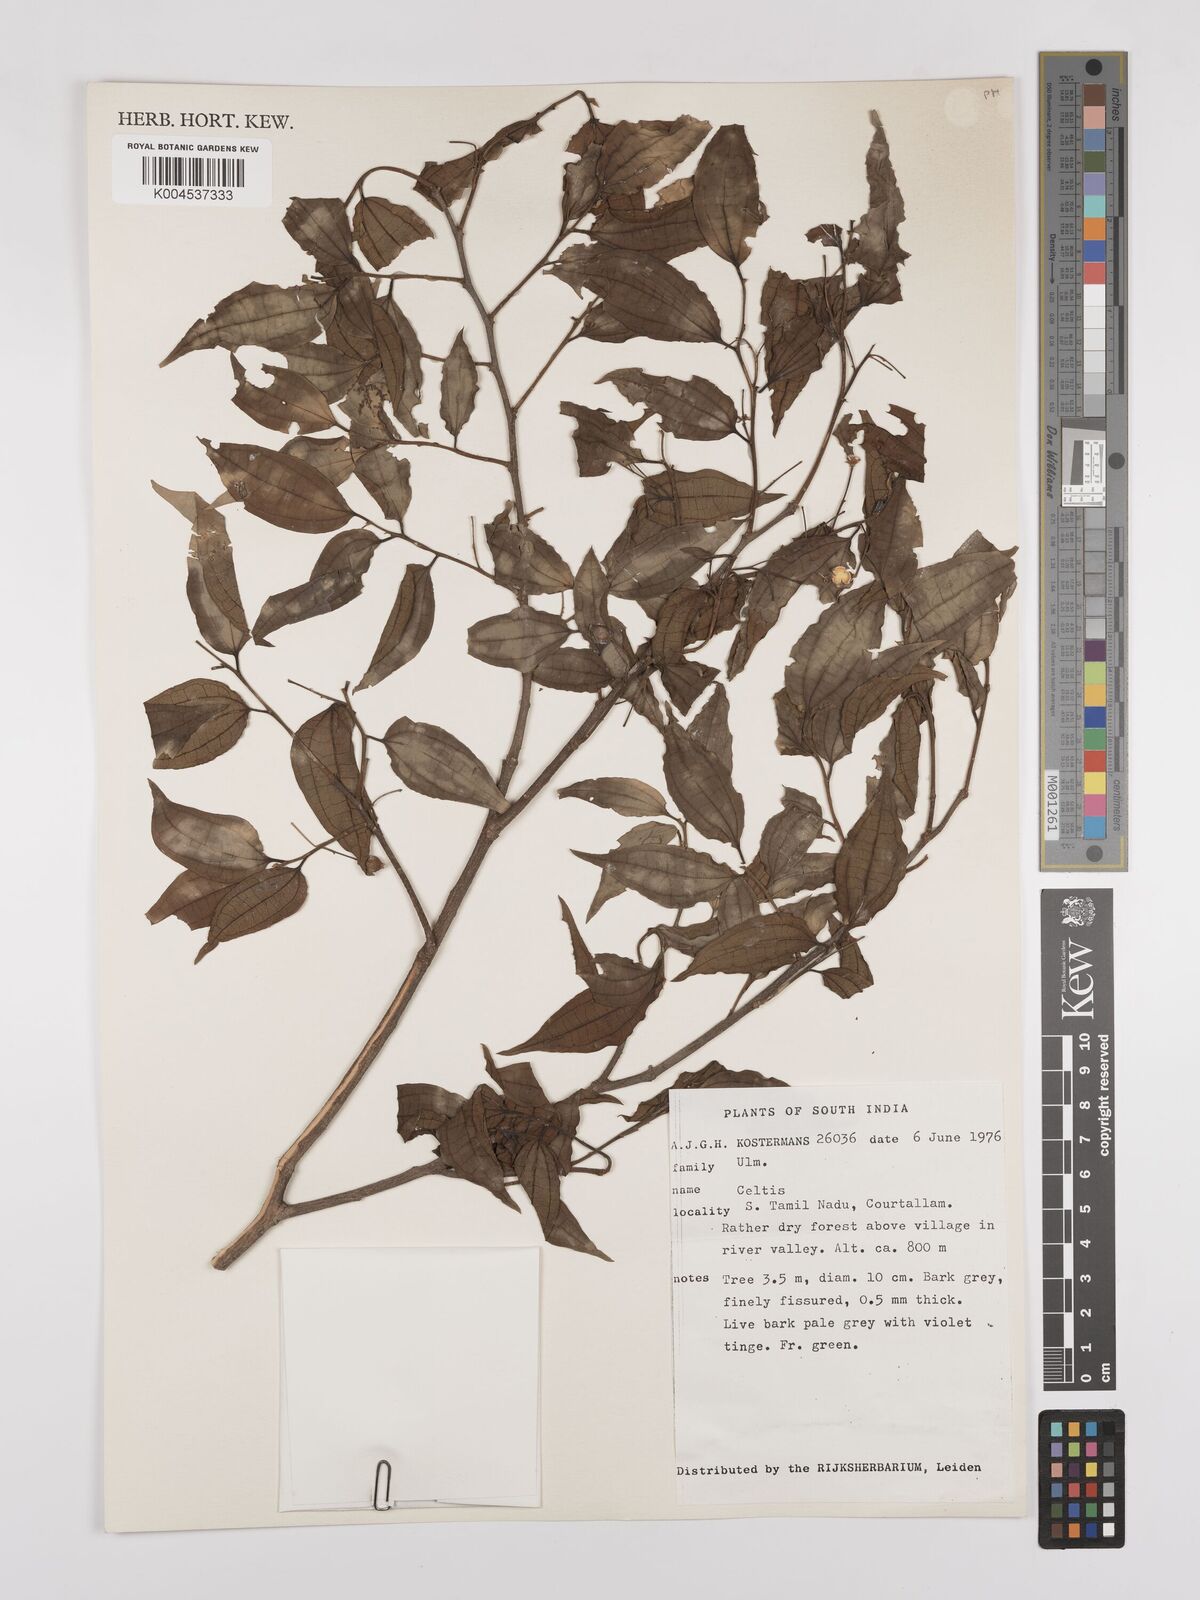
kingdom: Plantae
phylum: Tracheophyta
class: Magnoliopsida
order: Rosales
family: Cannabaceae
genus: Celtis
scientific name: Celtis
